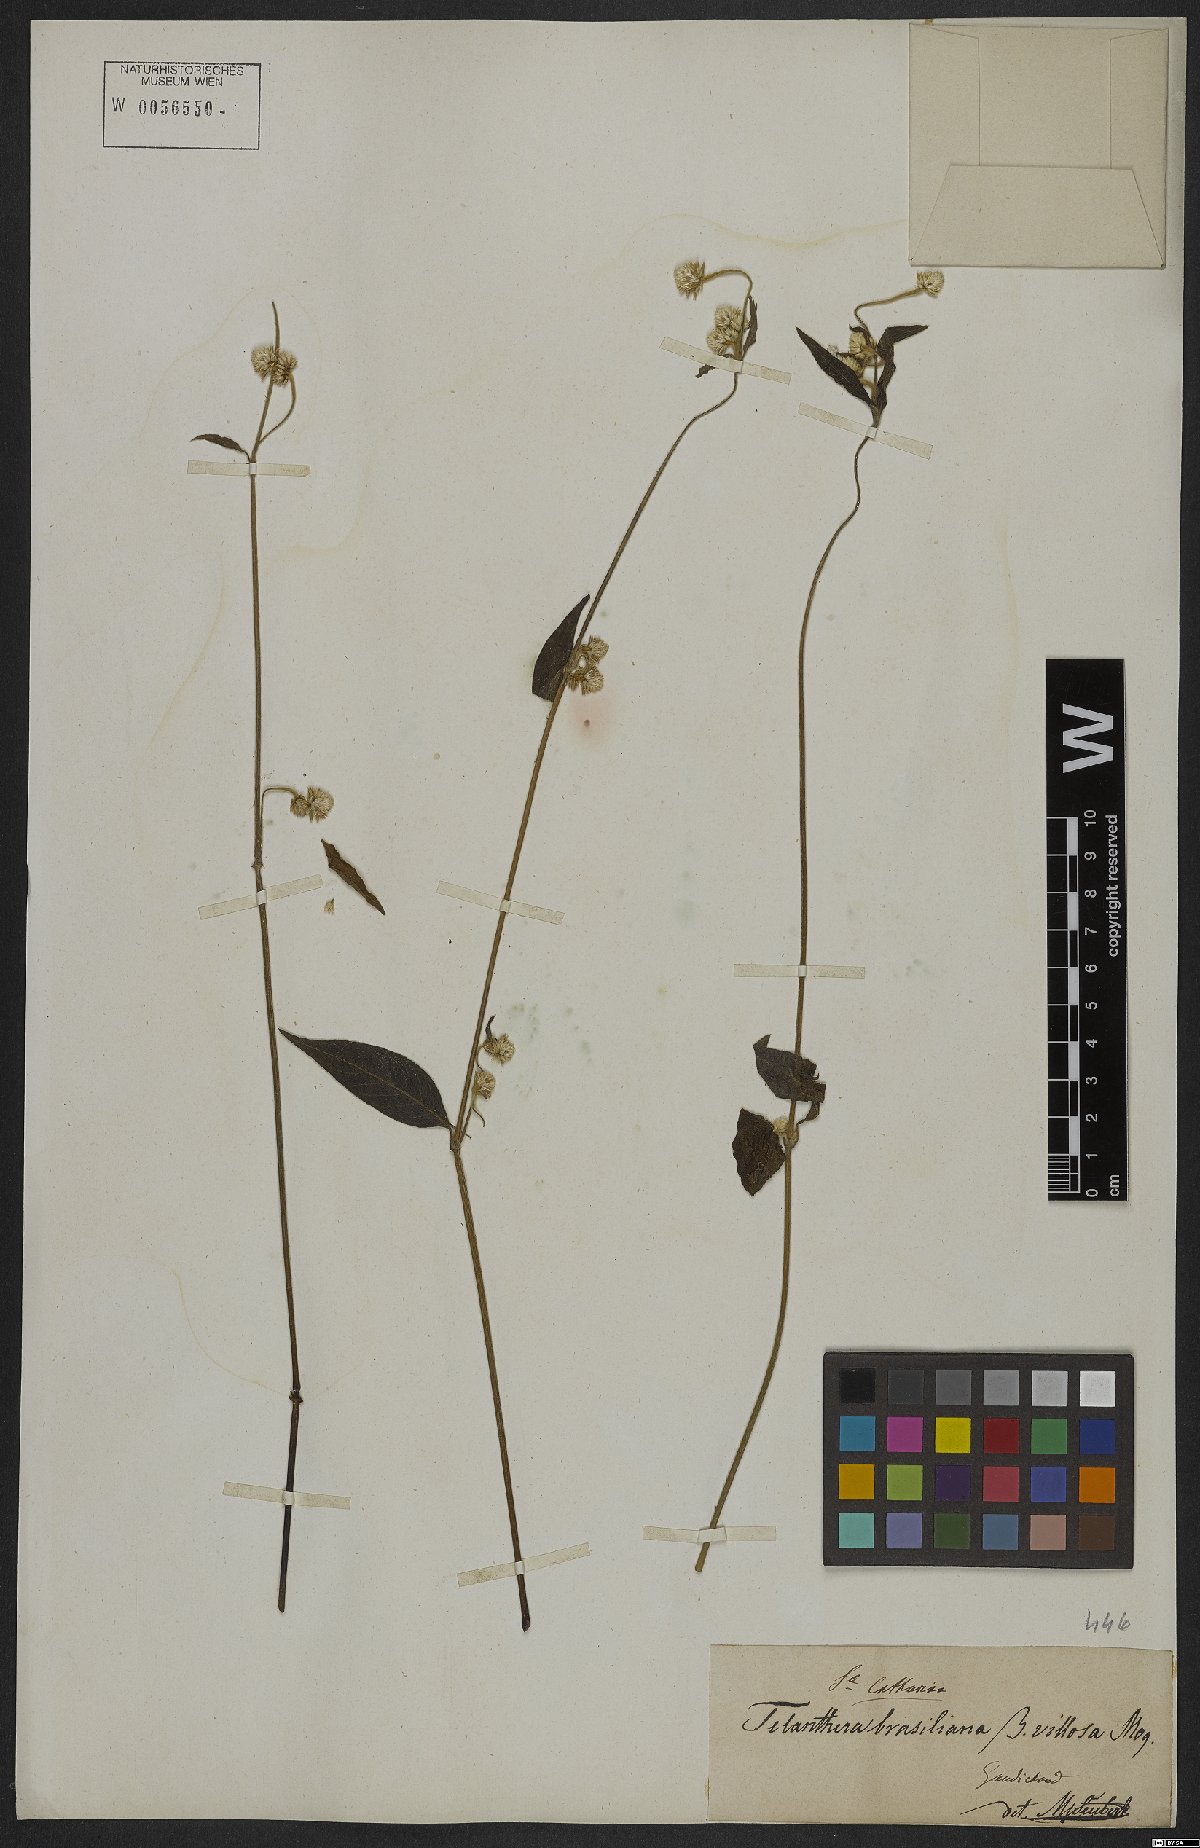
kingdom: Plantae
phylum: Tracheophyta
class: Magnoliopsida
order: Caryophyllales
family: Amaranthaceae
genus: Alternanthera
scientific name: Alternanthera brasiliana
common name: Brazilian joyweed
